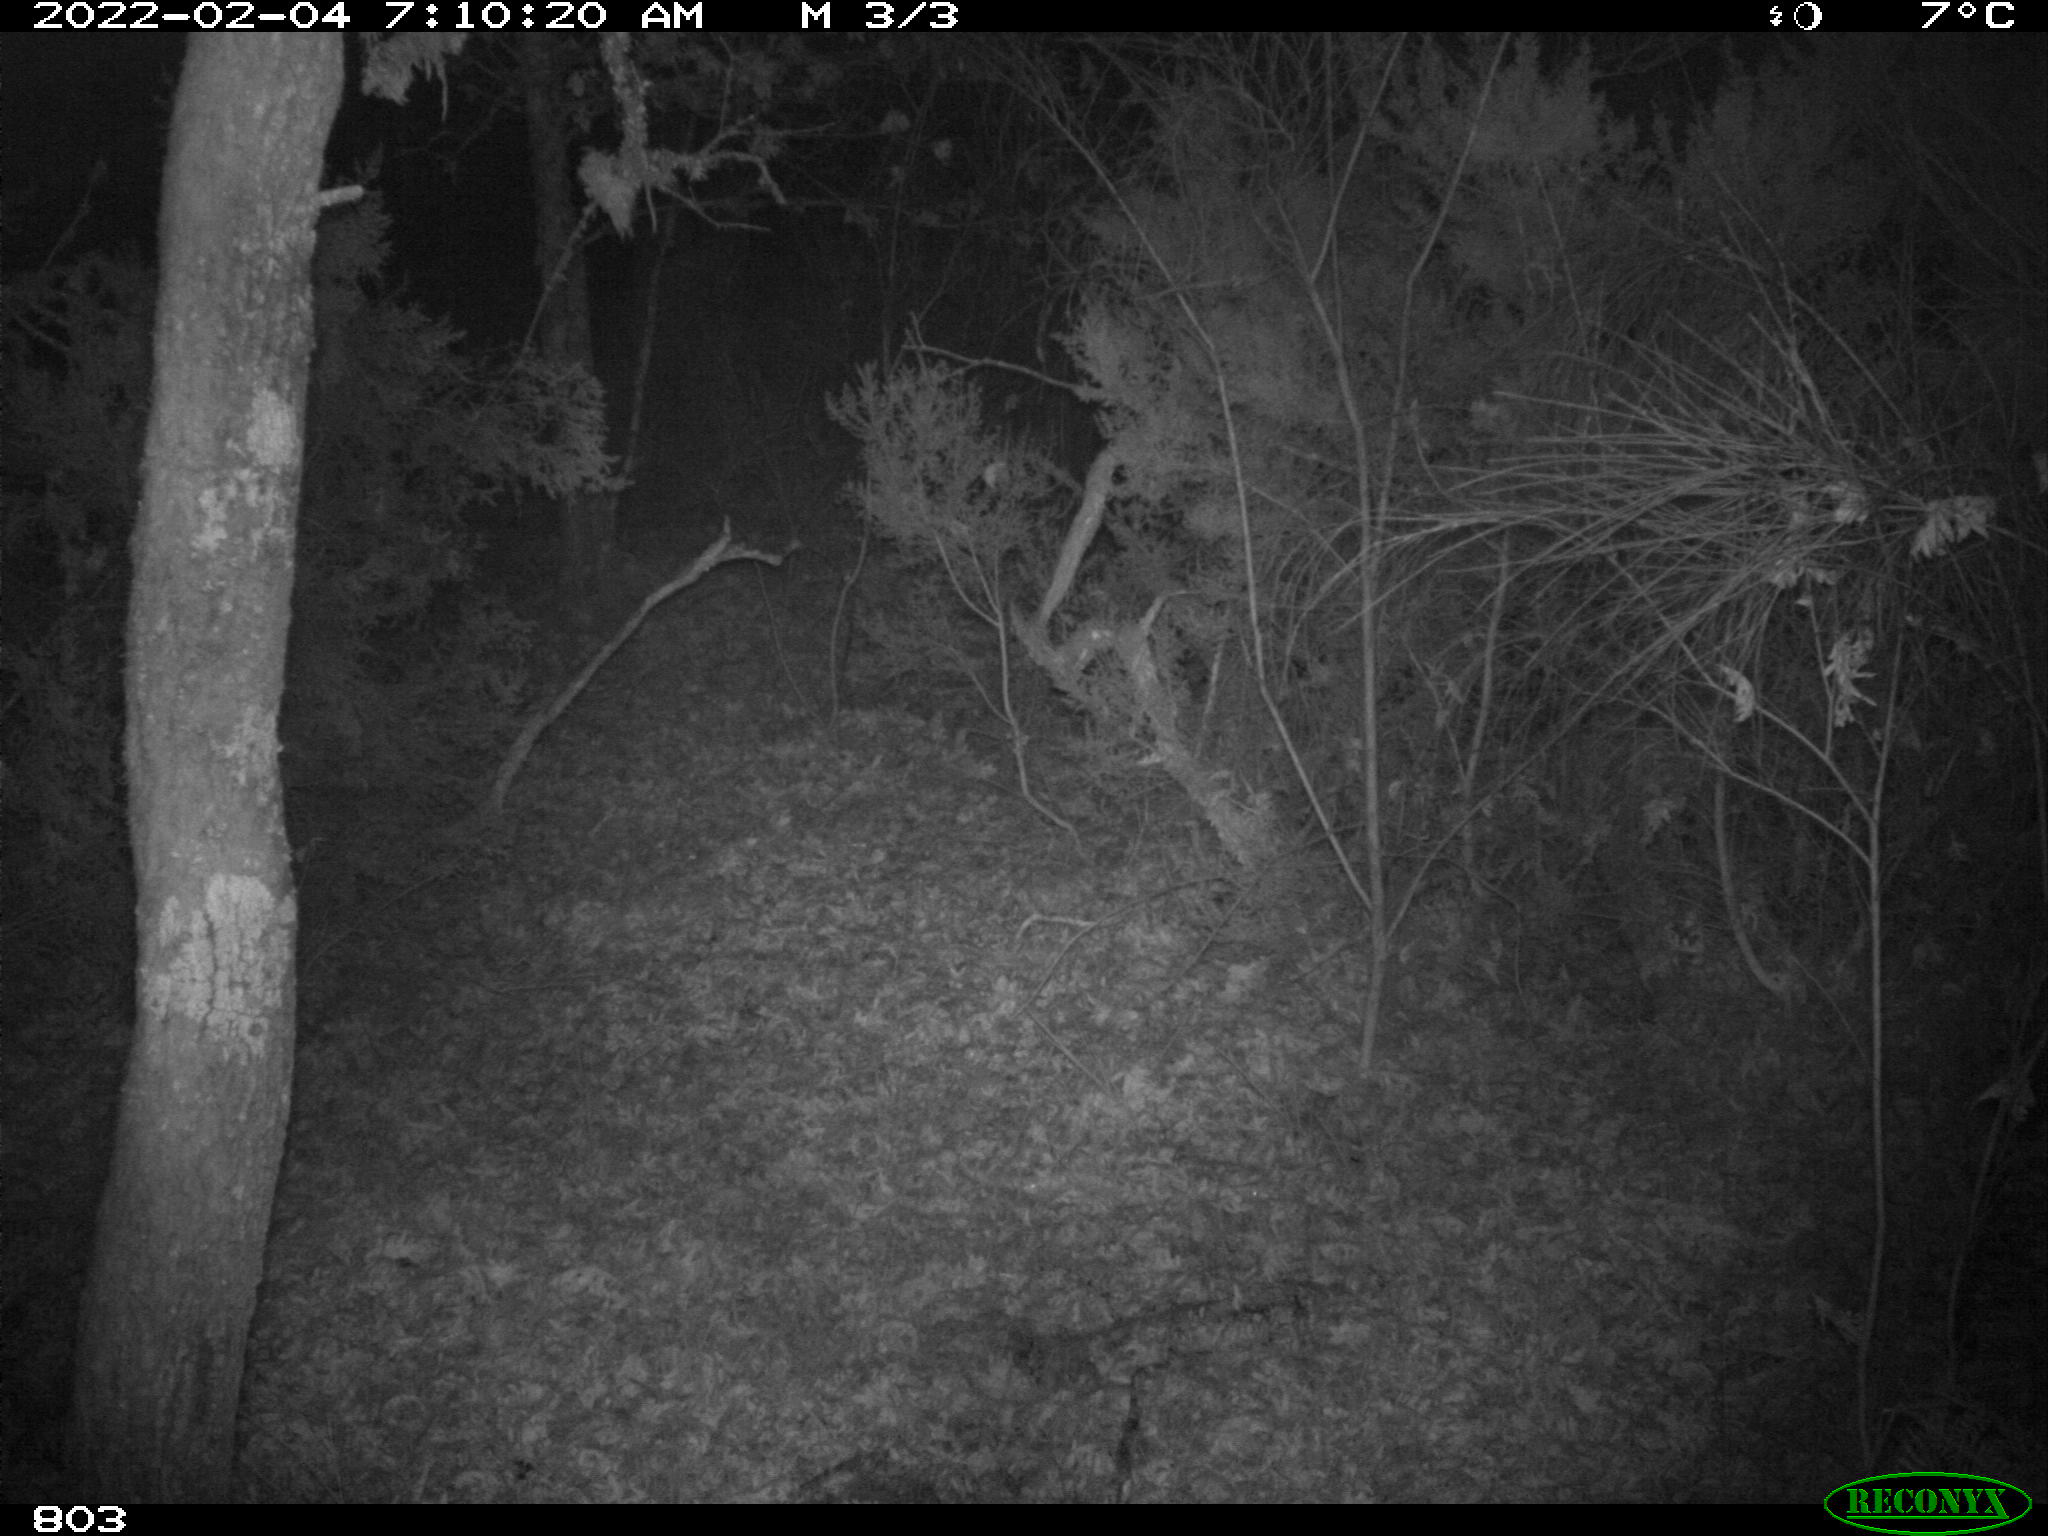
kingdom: Animalia
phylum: Chordata
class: Mammalia
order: Artiodactyla
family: Suidae
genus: Sus
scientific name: Sus scrofa
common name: Wild boar
